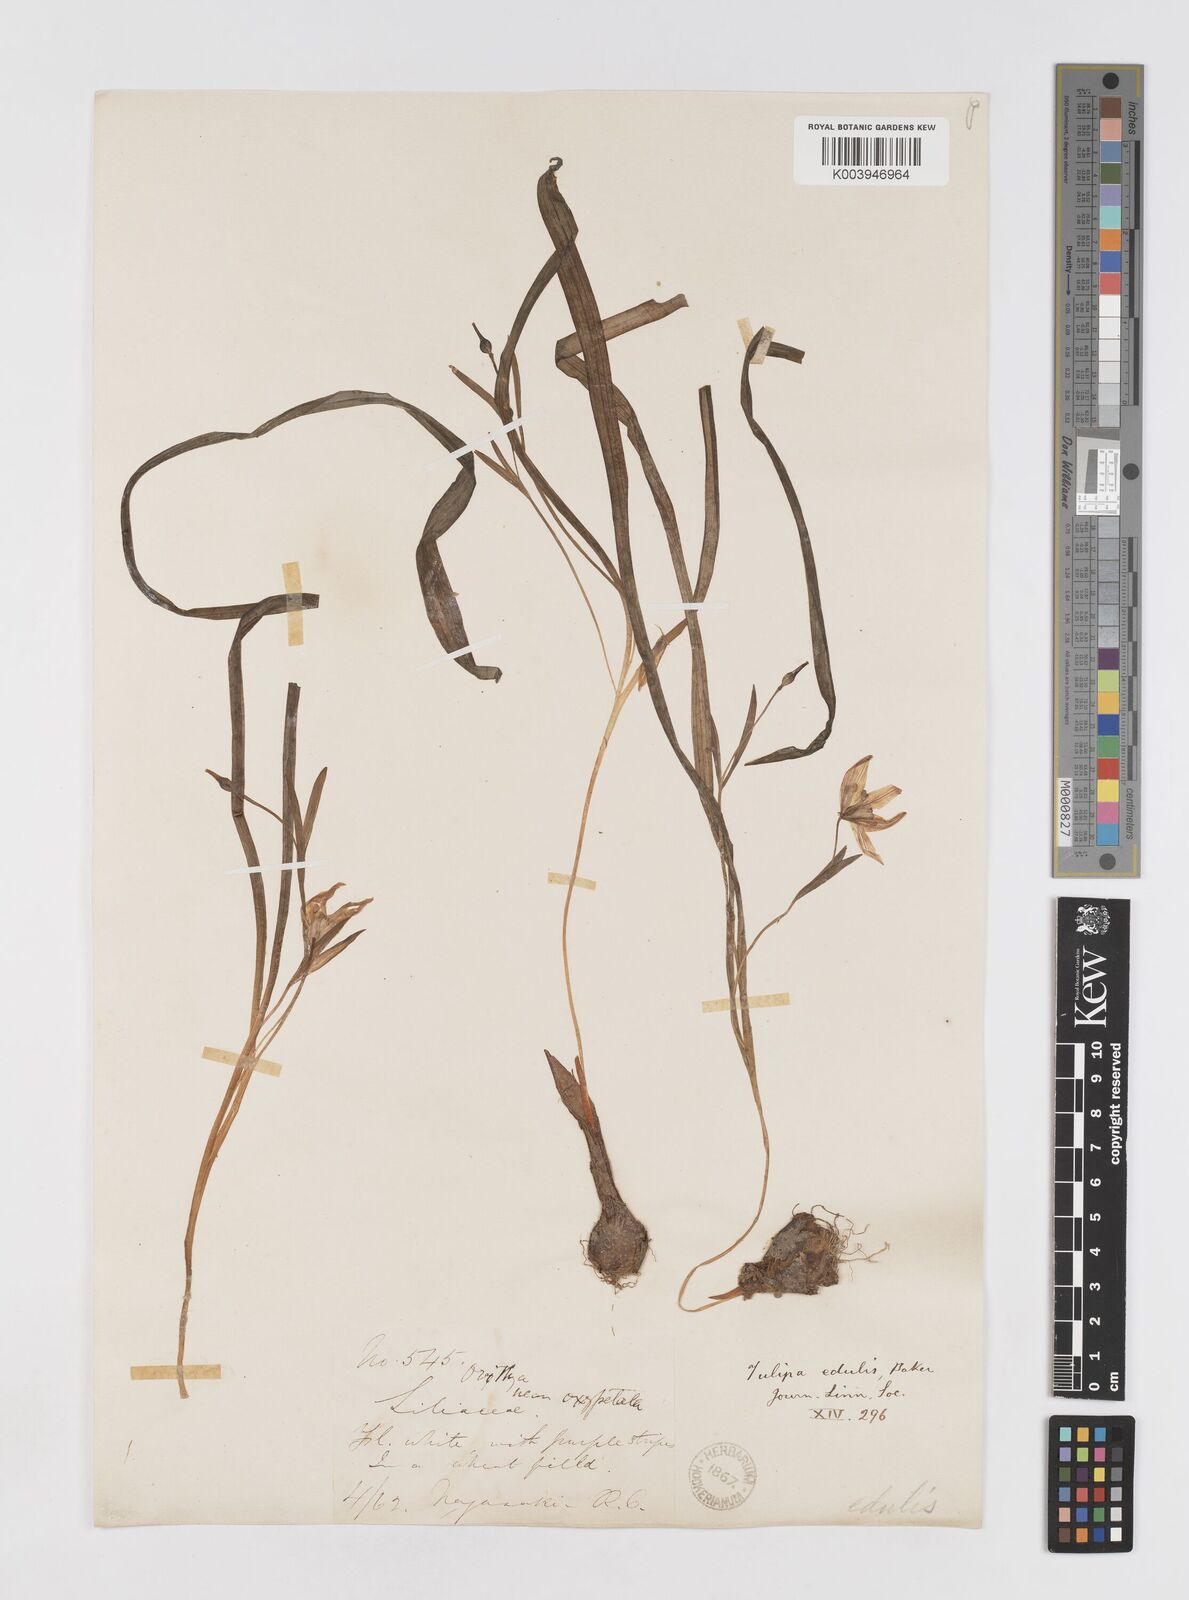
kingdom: Plantae
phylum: Tracheophyta
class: Liliopsida
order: Liliales
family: Liliaceae
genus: Amana
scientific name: Amana edulis
